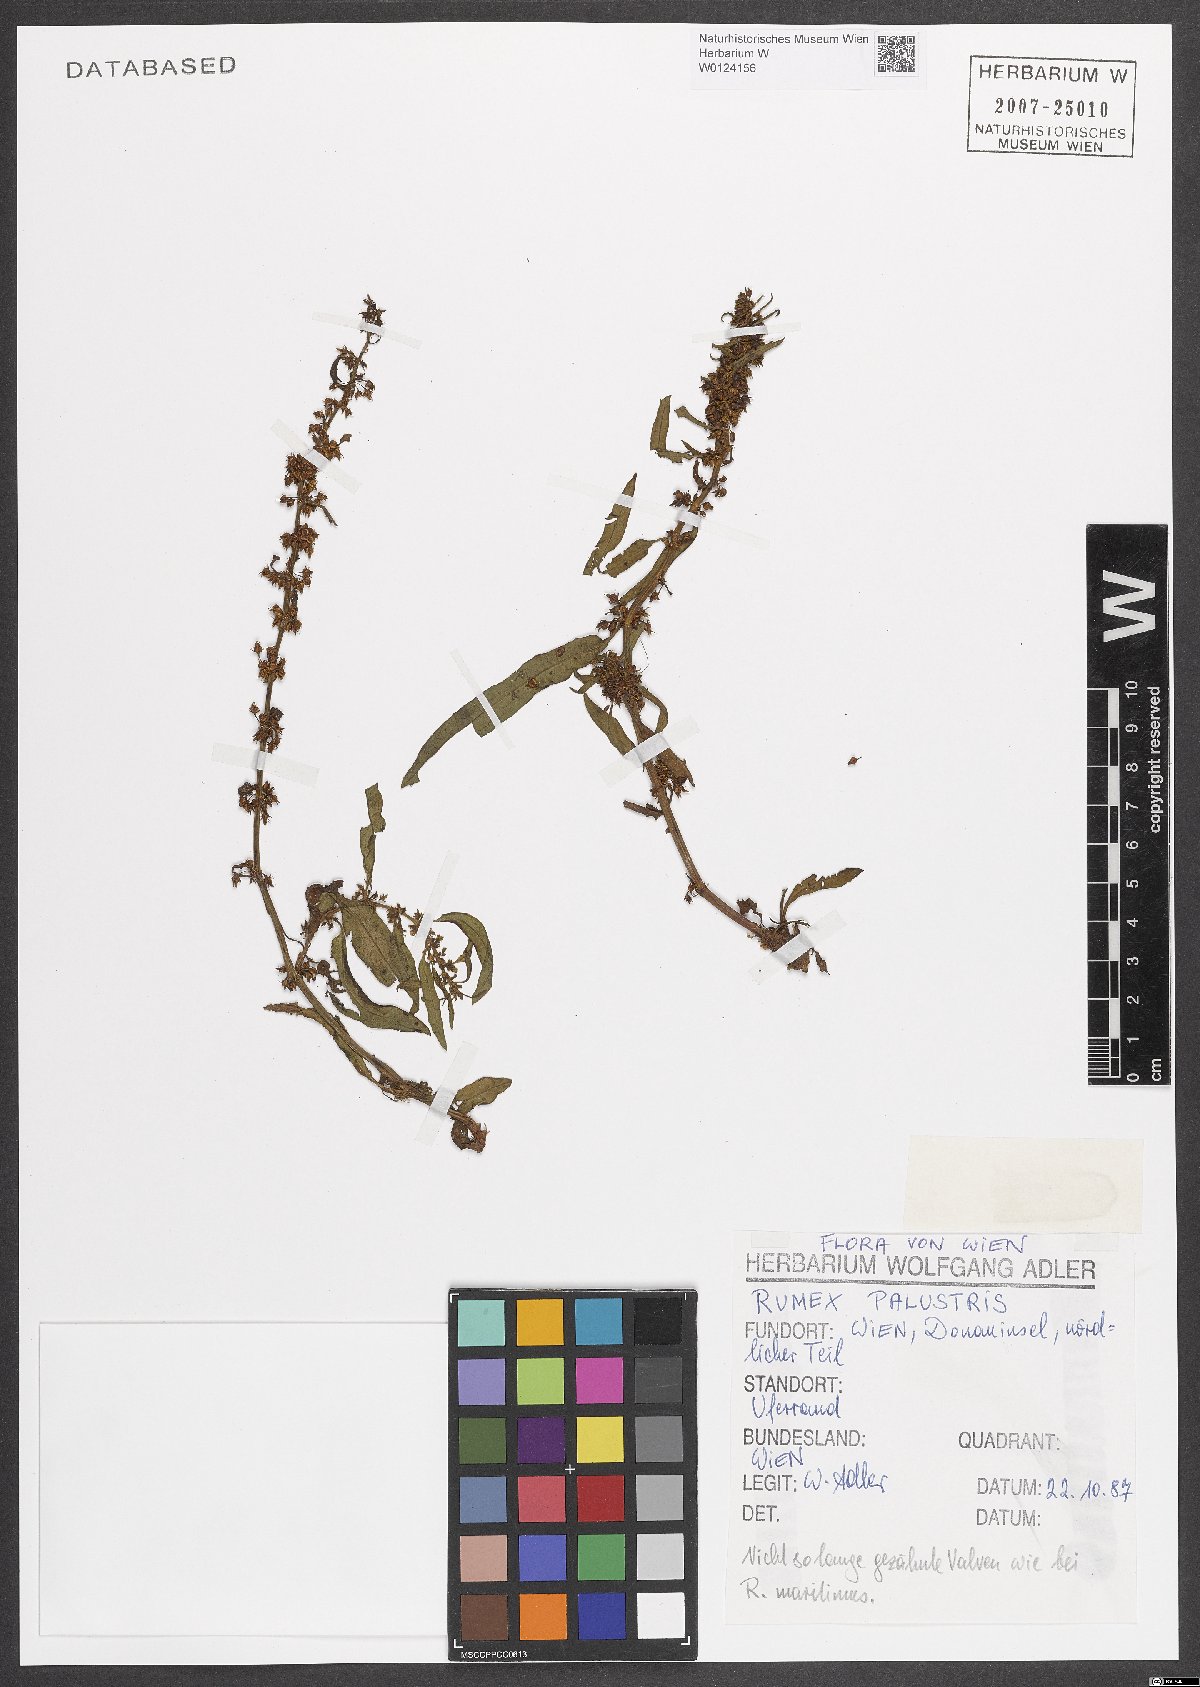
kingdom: Plantae
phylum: Tracheophyta
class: Magnoliopsida
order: Caryophyllales
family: Polygonaceae
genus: Rumex
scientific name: Rumex palustris
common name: Marsh dock
